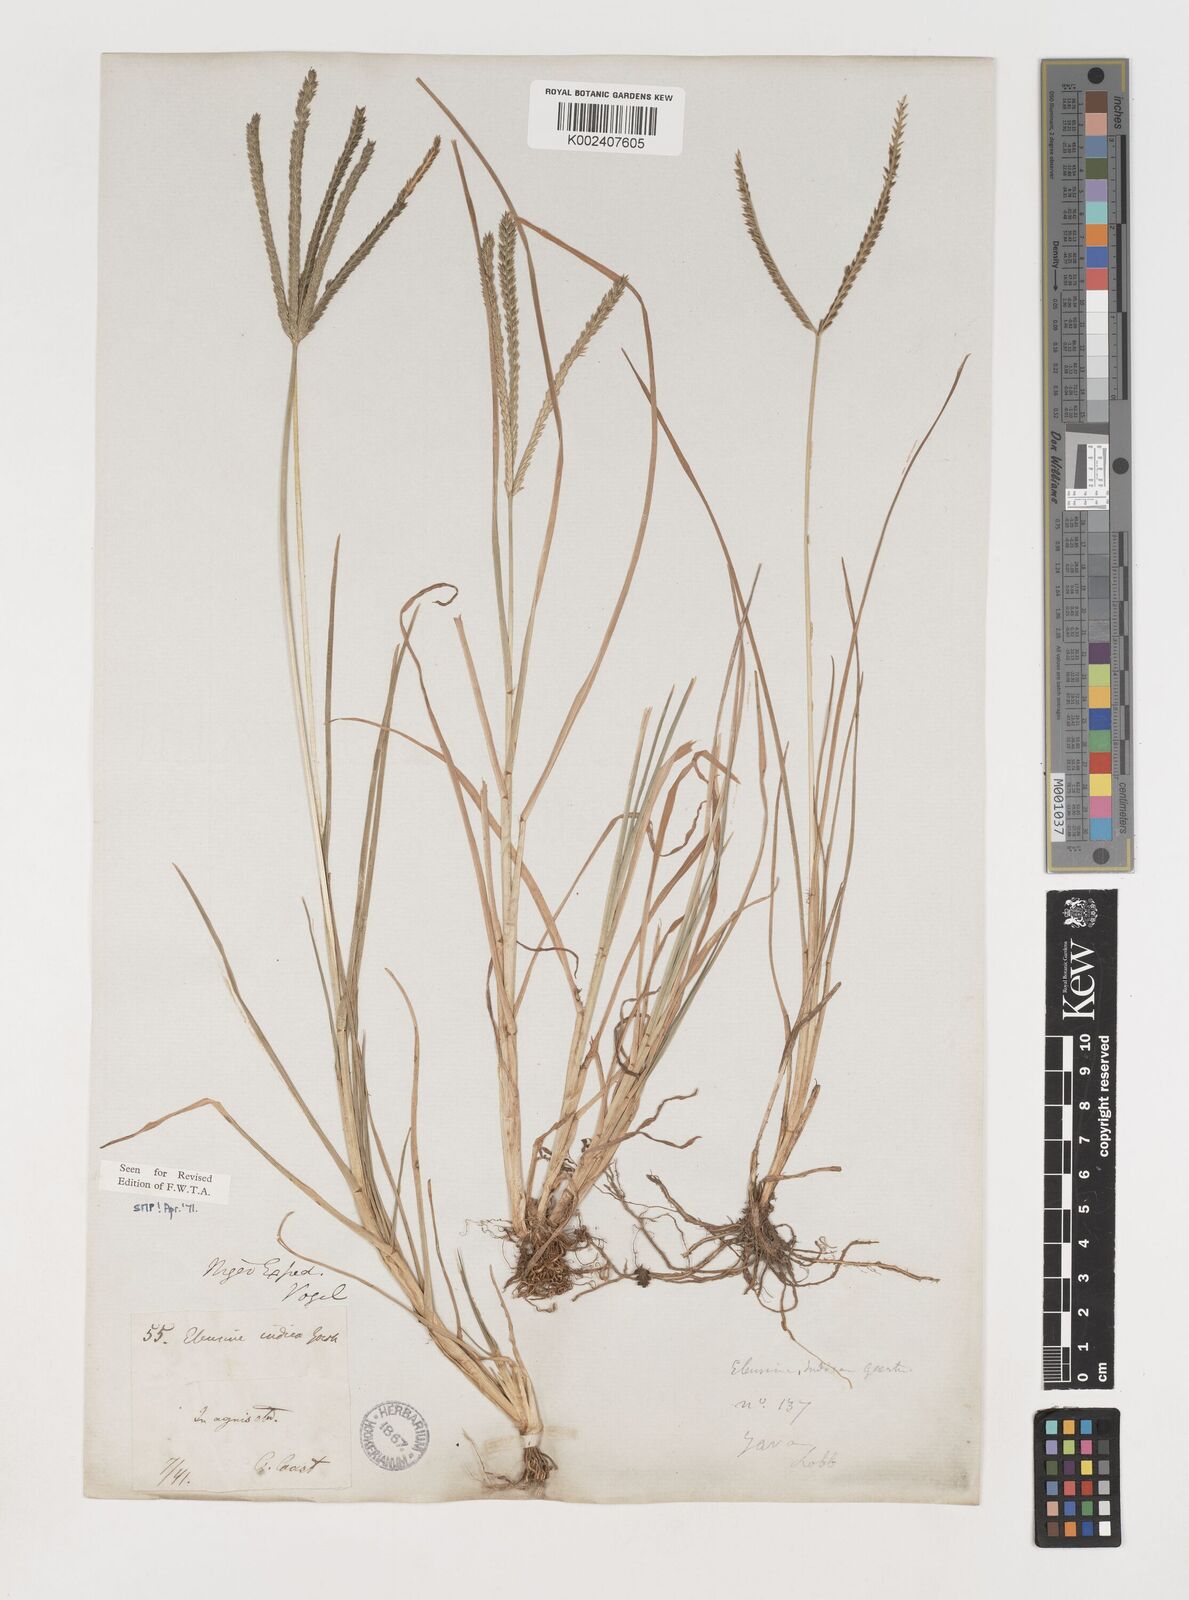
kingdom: Plantae
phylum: Tracheophyta
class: Liliopsida
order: Poales
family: Poaceae
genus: Eleusine
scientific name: Eleusine indica
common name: Yard-grass
